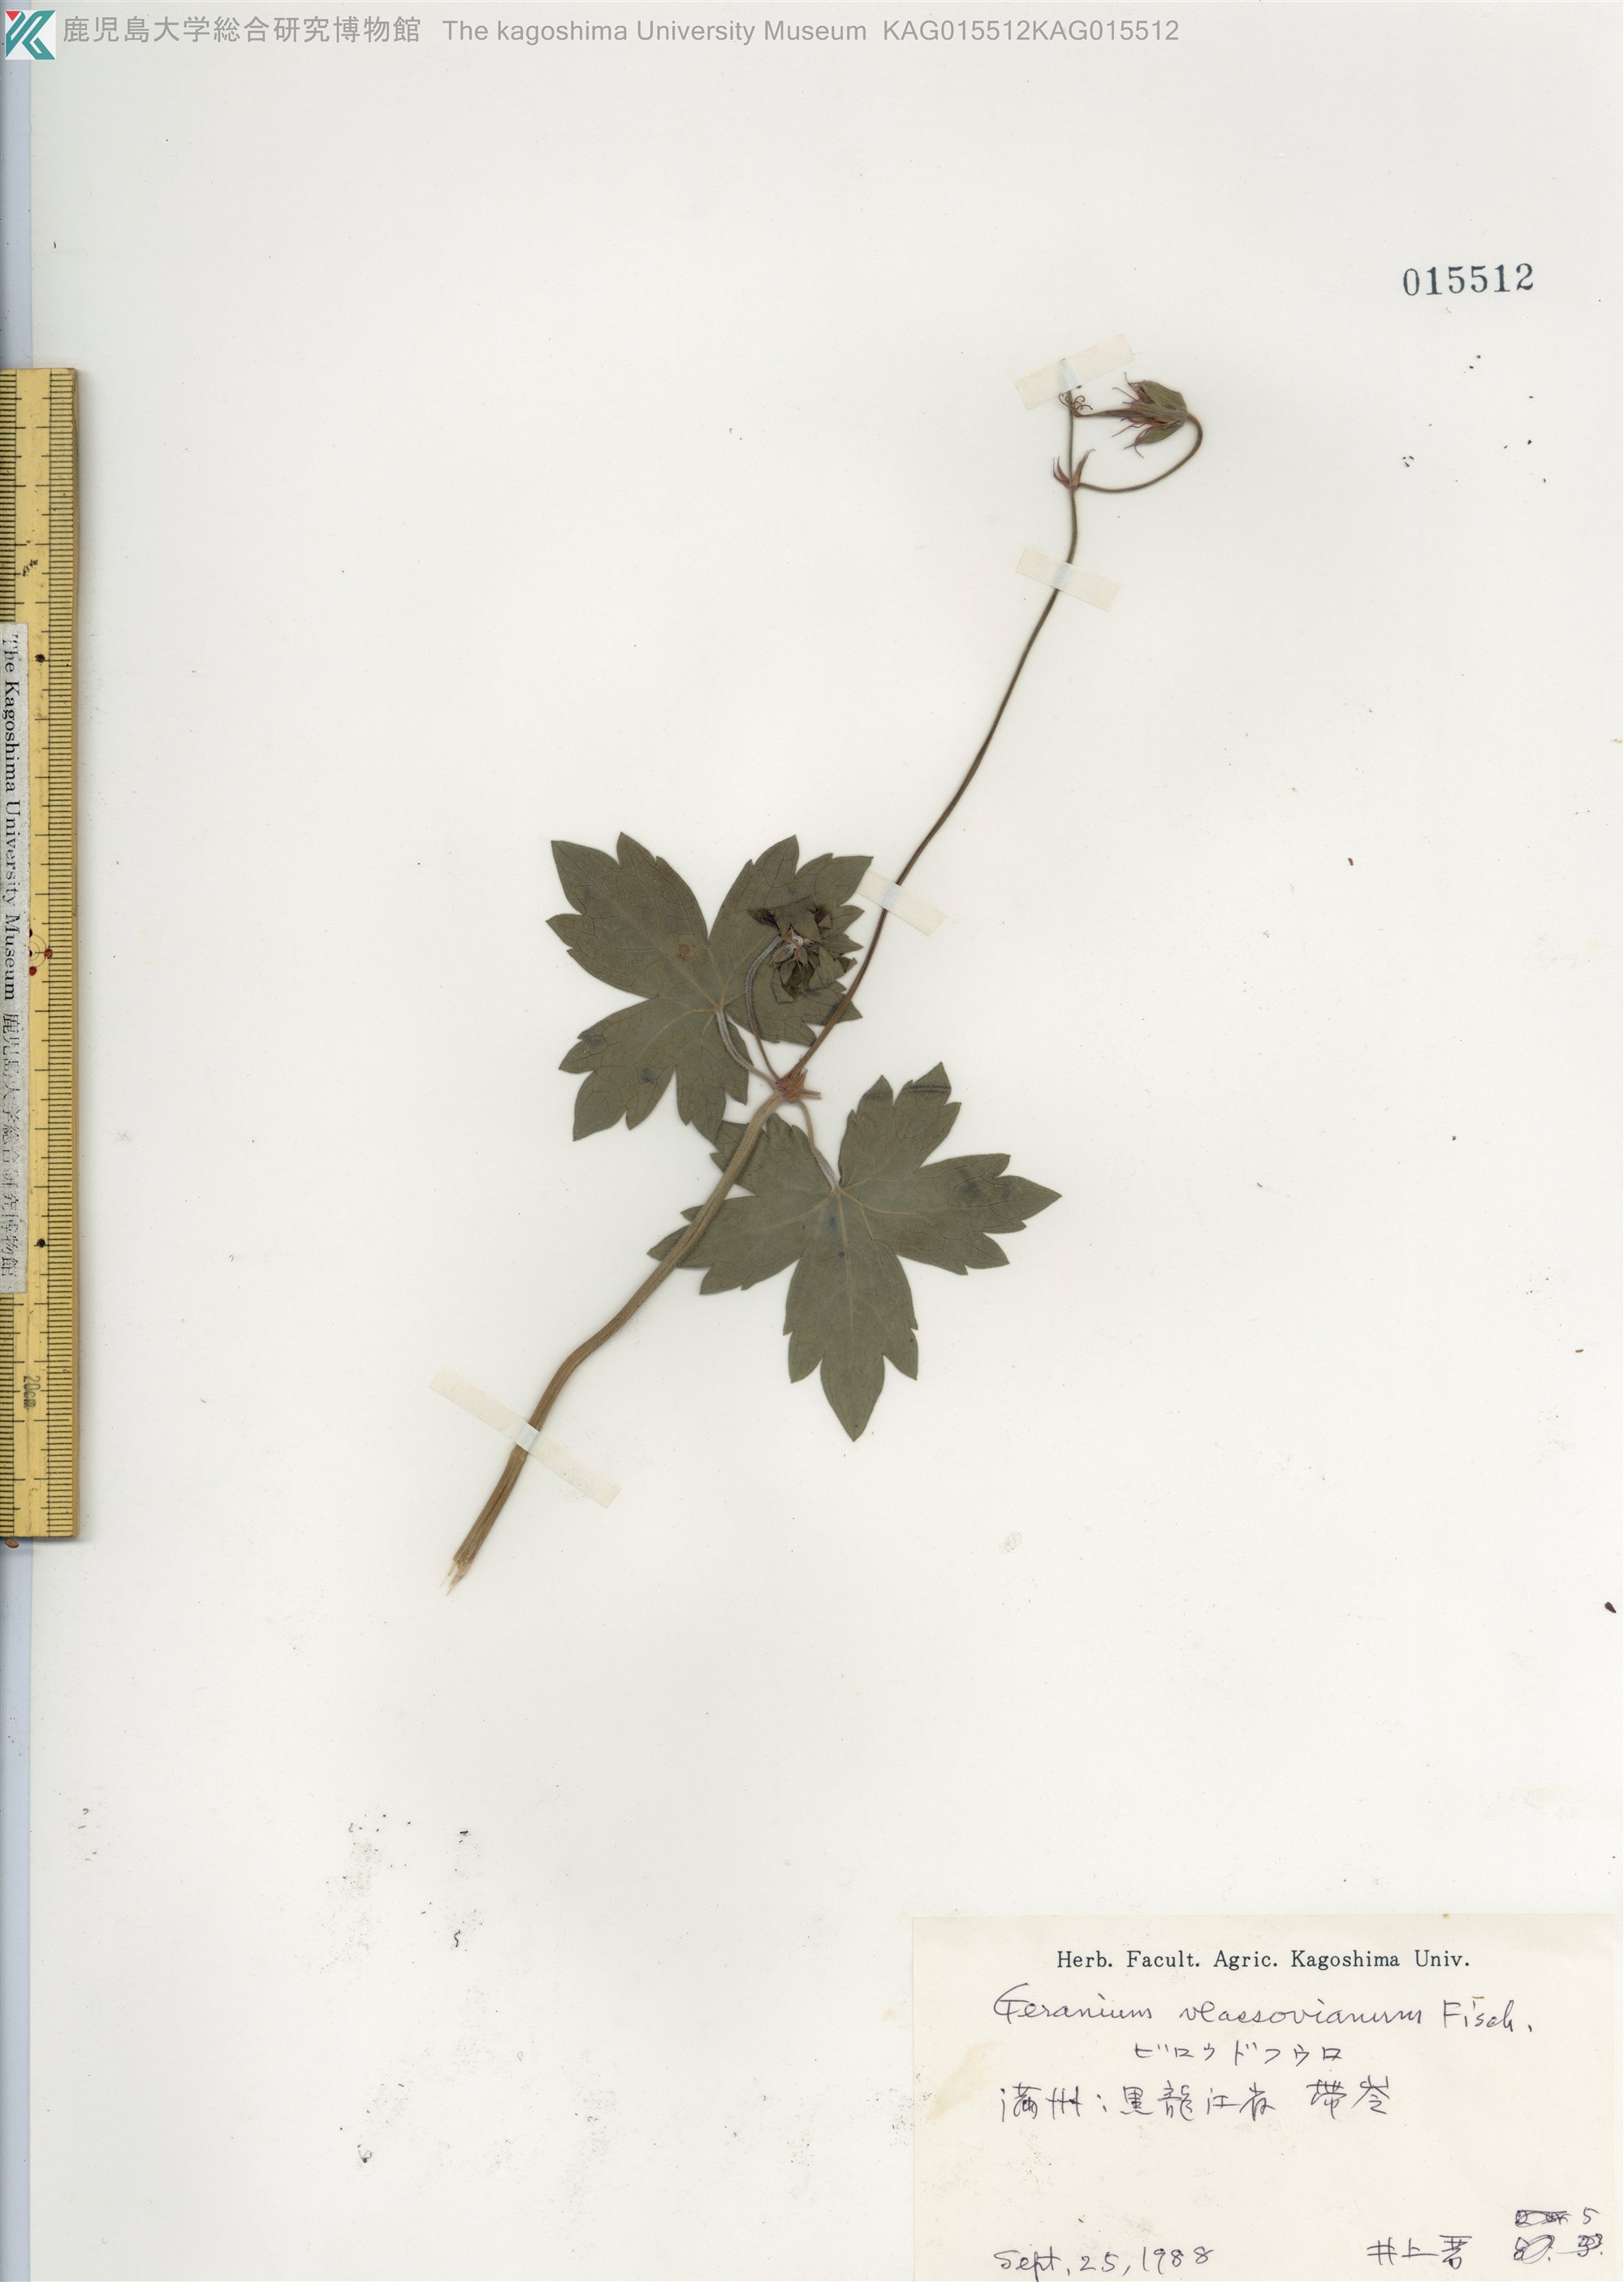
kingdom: Plantae
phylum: Tracheophyta
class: Magnoliopsida
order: Geraniales
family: Geraniaceae
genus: Geranium
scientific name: Geranium vlassovianum
